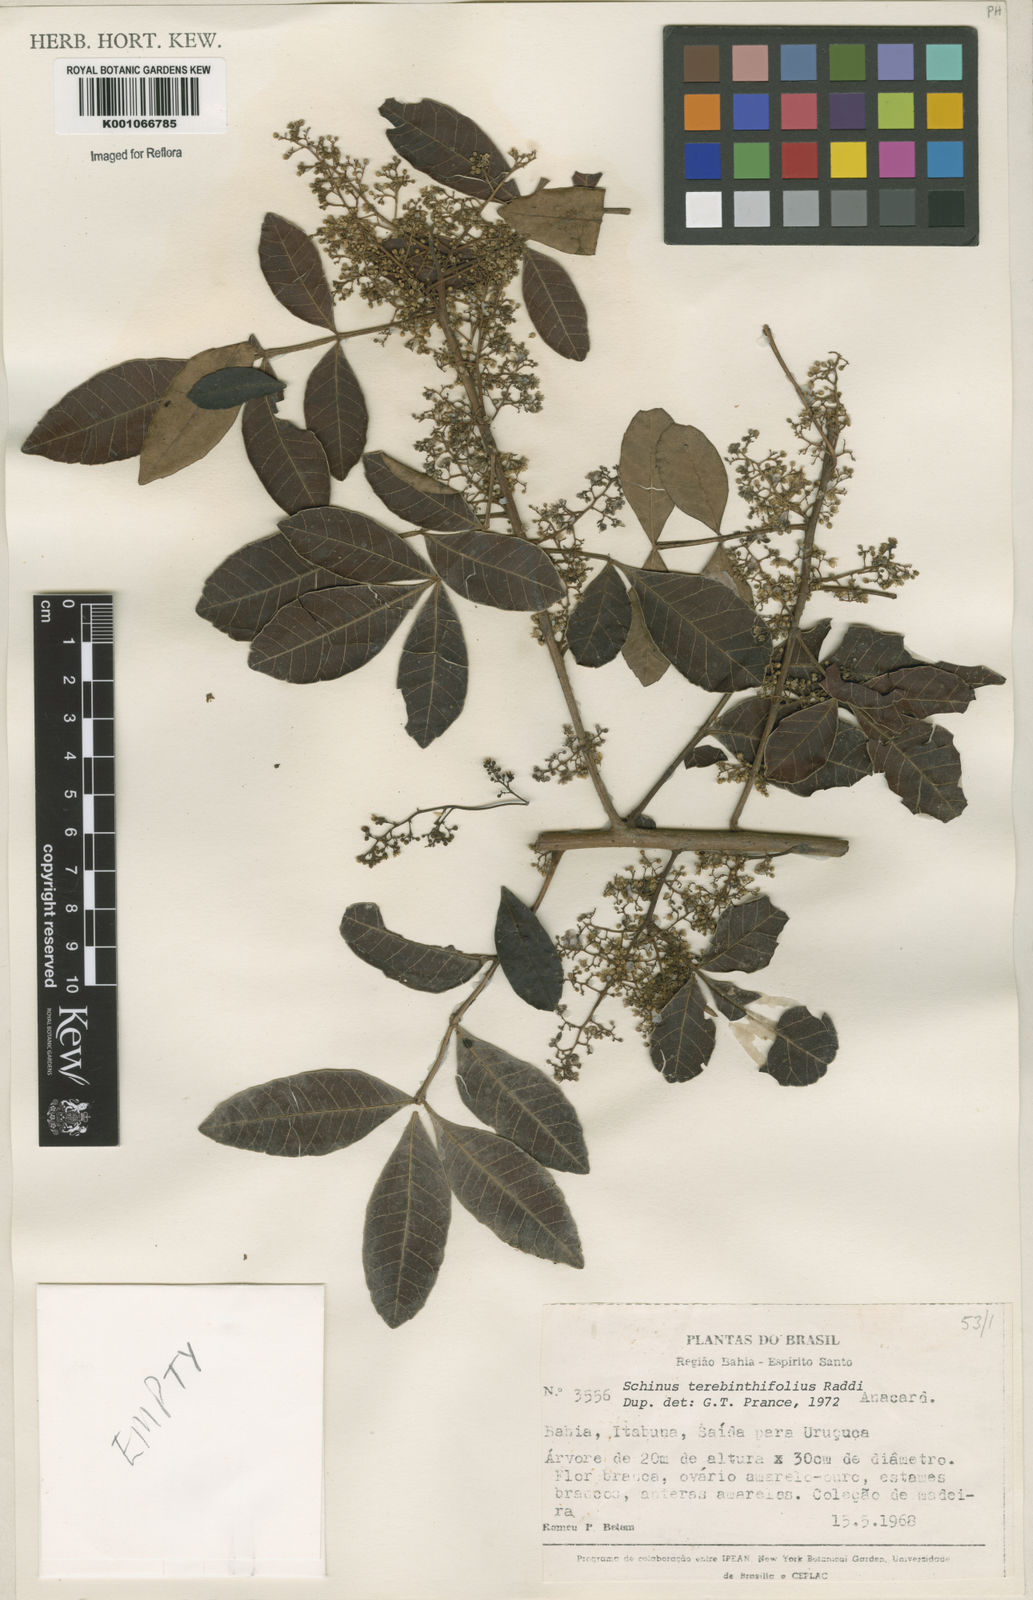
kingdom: Plantae
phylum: Tracheophyta
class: Magnoliopsida
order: Sapindales
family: Anacardiaceae
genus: Schinus
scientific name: Schinus terebinthifolia
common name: Brazilian peppertree
